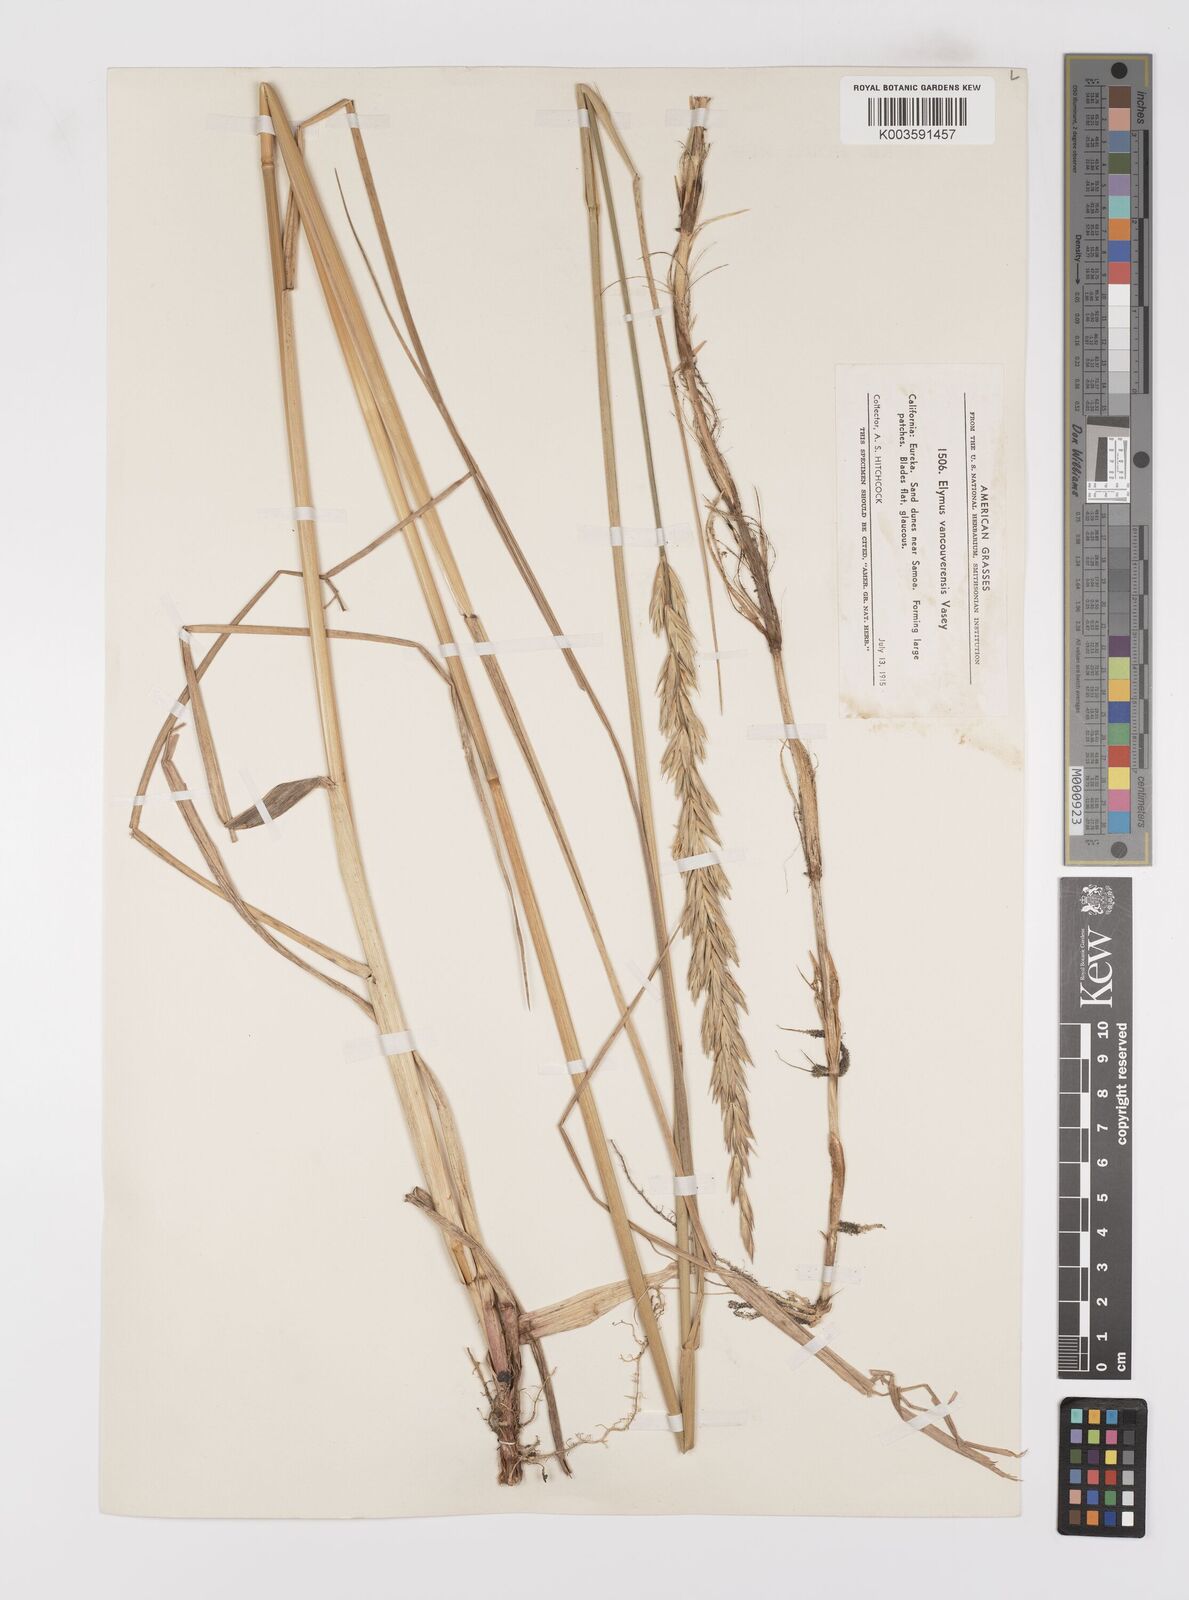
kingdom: Plantae
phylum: Tracheophyta
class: Liliopsida
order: Poales
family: Poaceae
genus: Leymus
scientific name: Leymus vancouverensis
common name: Vancouver wild rye
